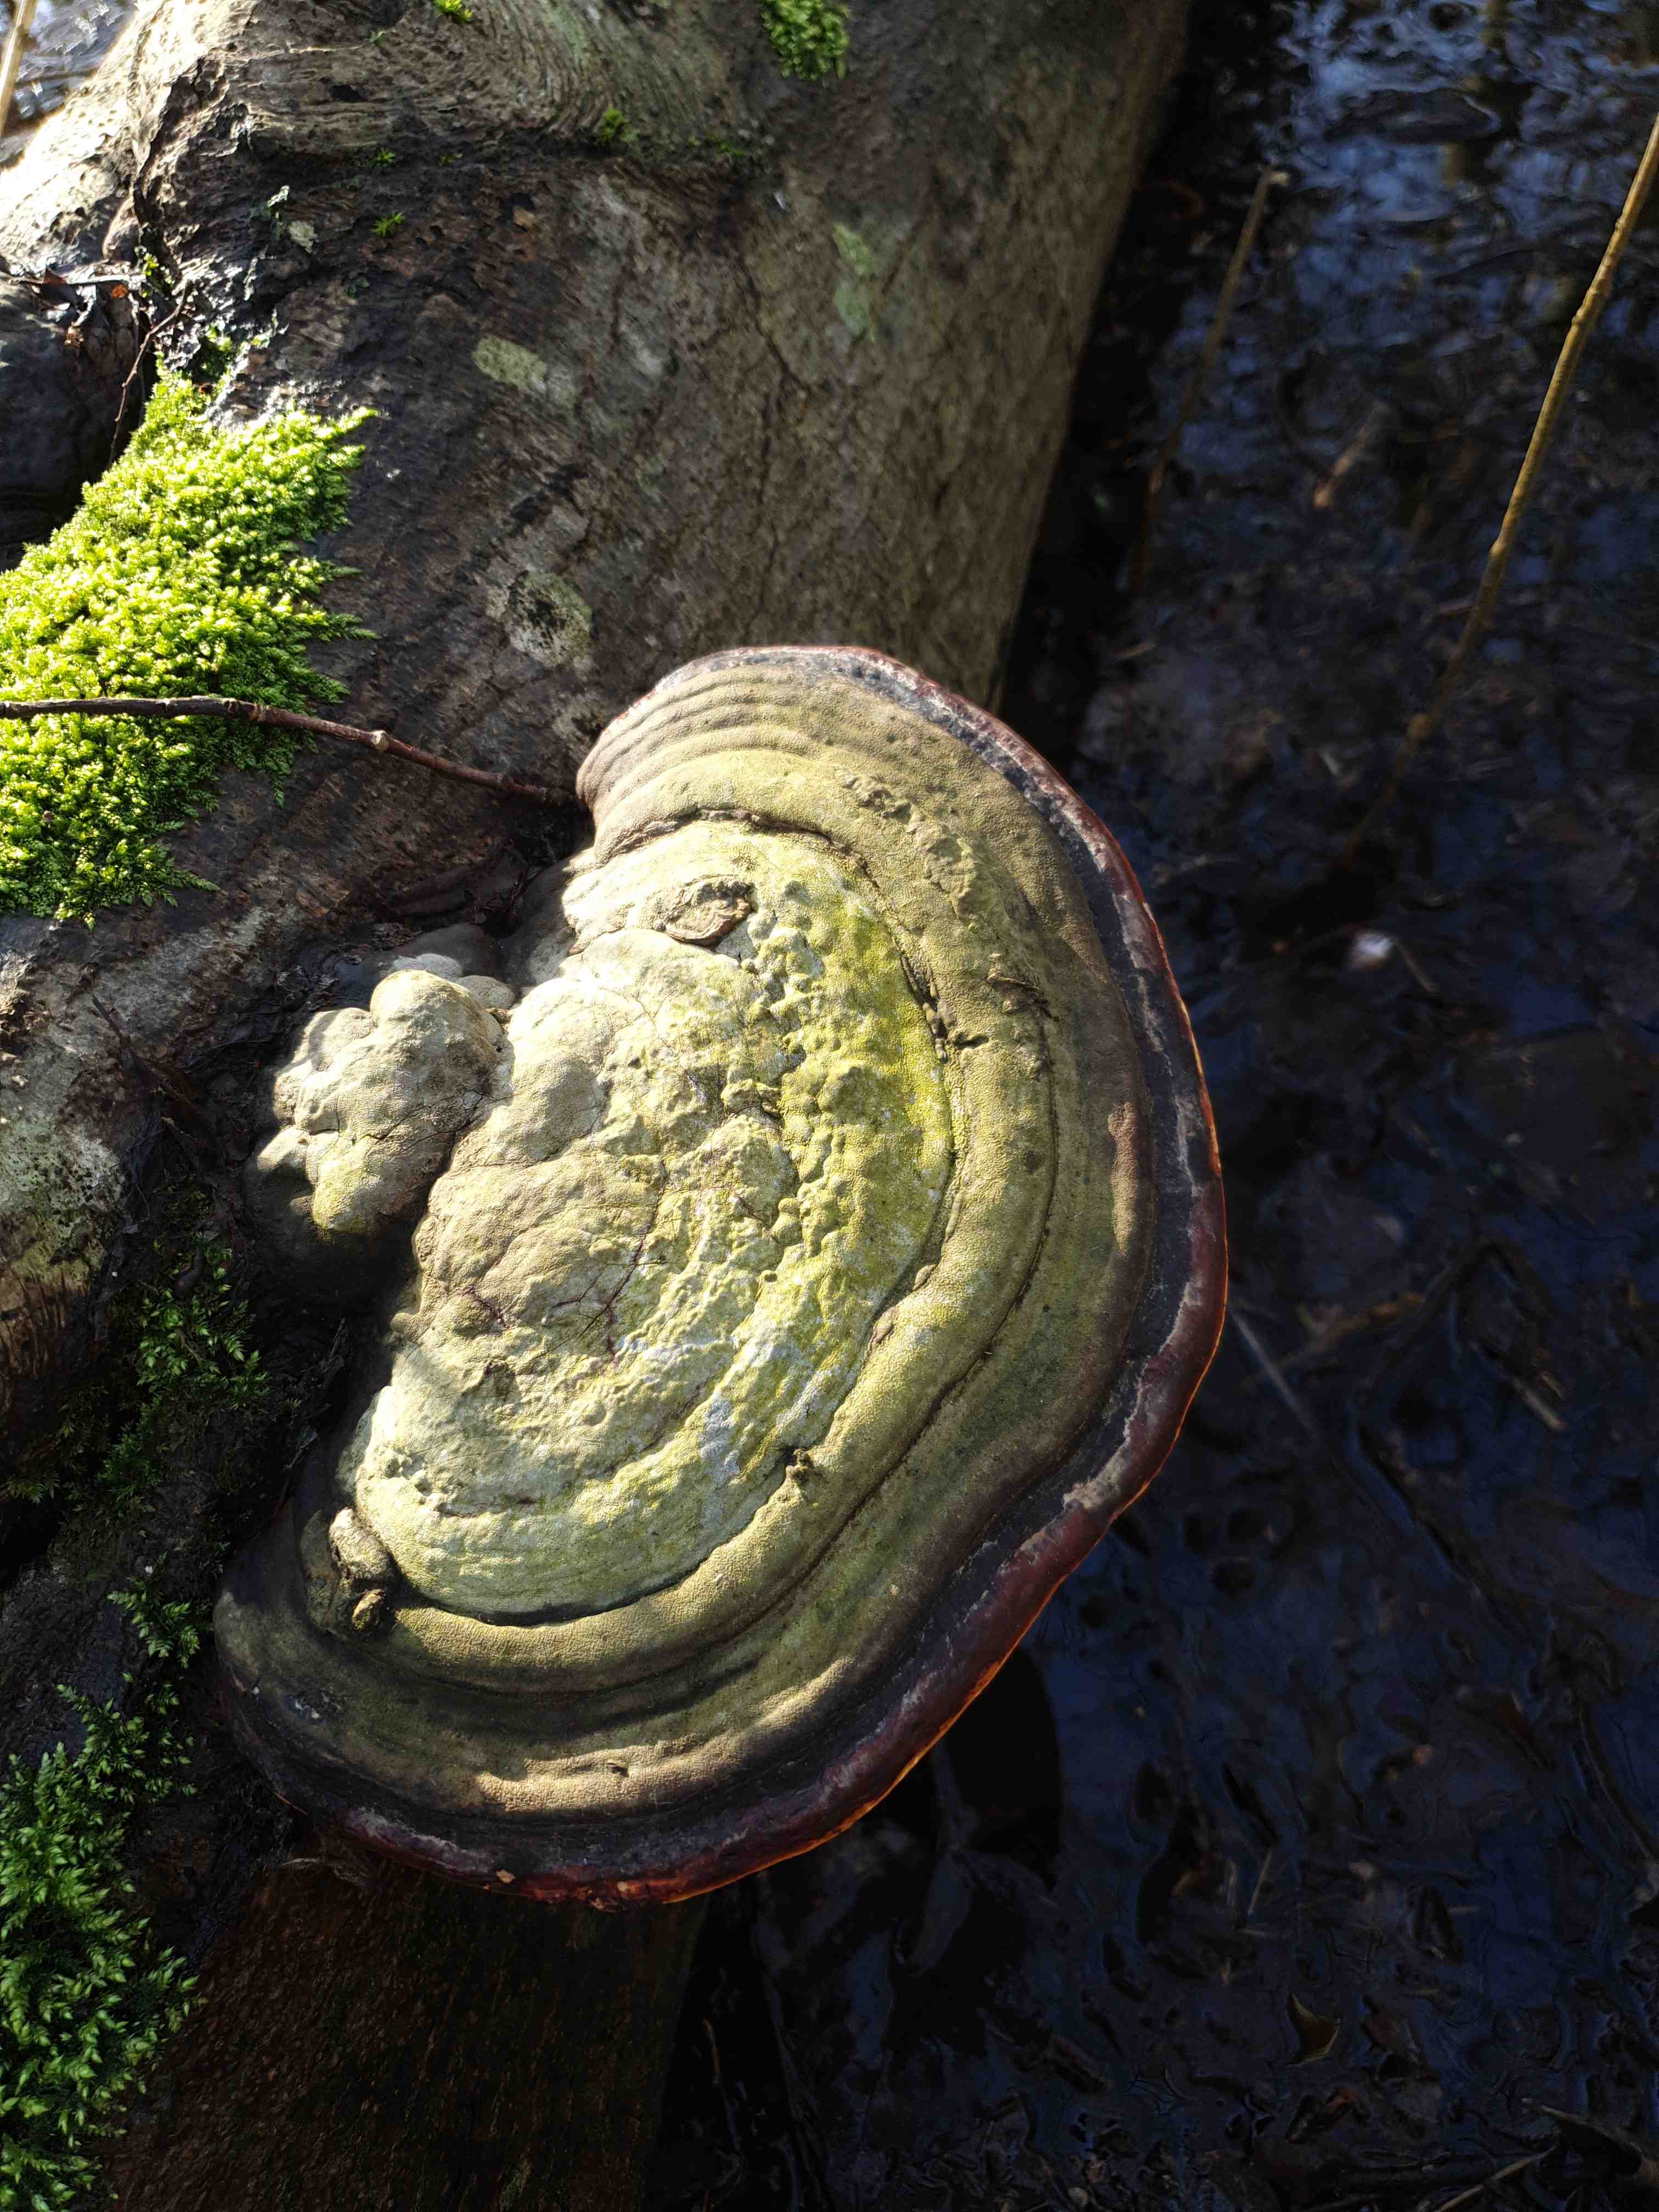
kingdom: Fungi
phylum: Basidiomycota
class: Agaricomycetes
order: Polyporales
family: Fomitopsidaceae
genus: Fomitopsis
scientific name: Fomitopsis pinicola
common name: randbæltet hovporesvamp
